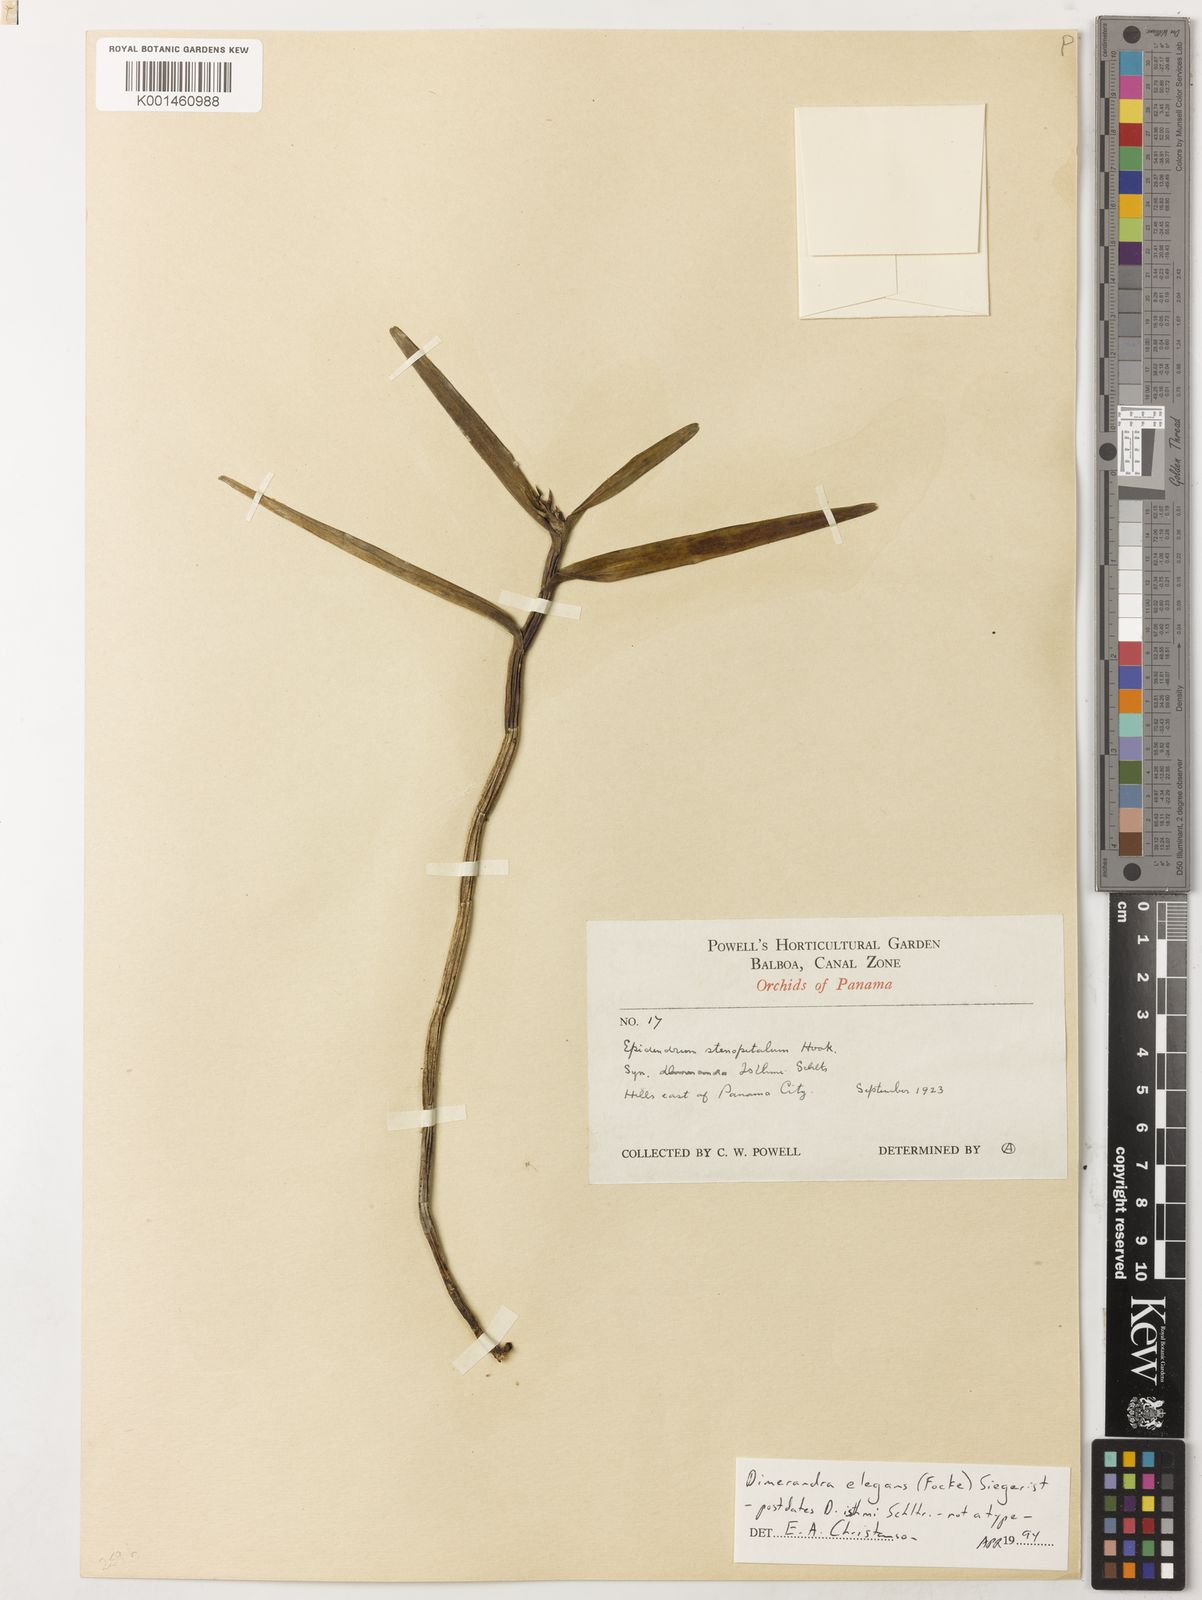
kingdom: Plantae
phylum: Tracheophyta
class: Liliopsida
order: Asparagales
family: Orchidaceae
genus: Dimerandra
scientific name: Dimerandra elegans
